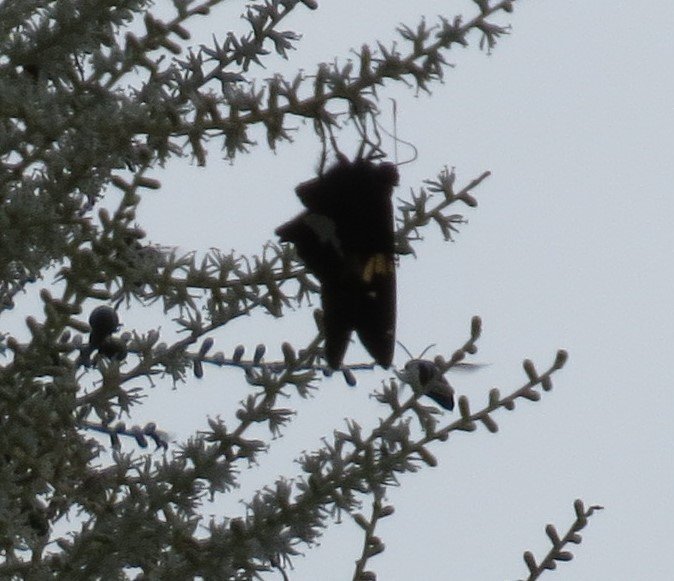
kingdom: Animalia
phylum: Arthropoda
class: Insecta
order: Lepidoptera
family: Hesperiidae
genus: Epargyreus
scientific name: Epargyreus clarus
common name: Silver-spotted Skipper
